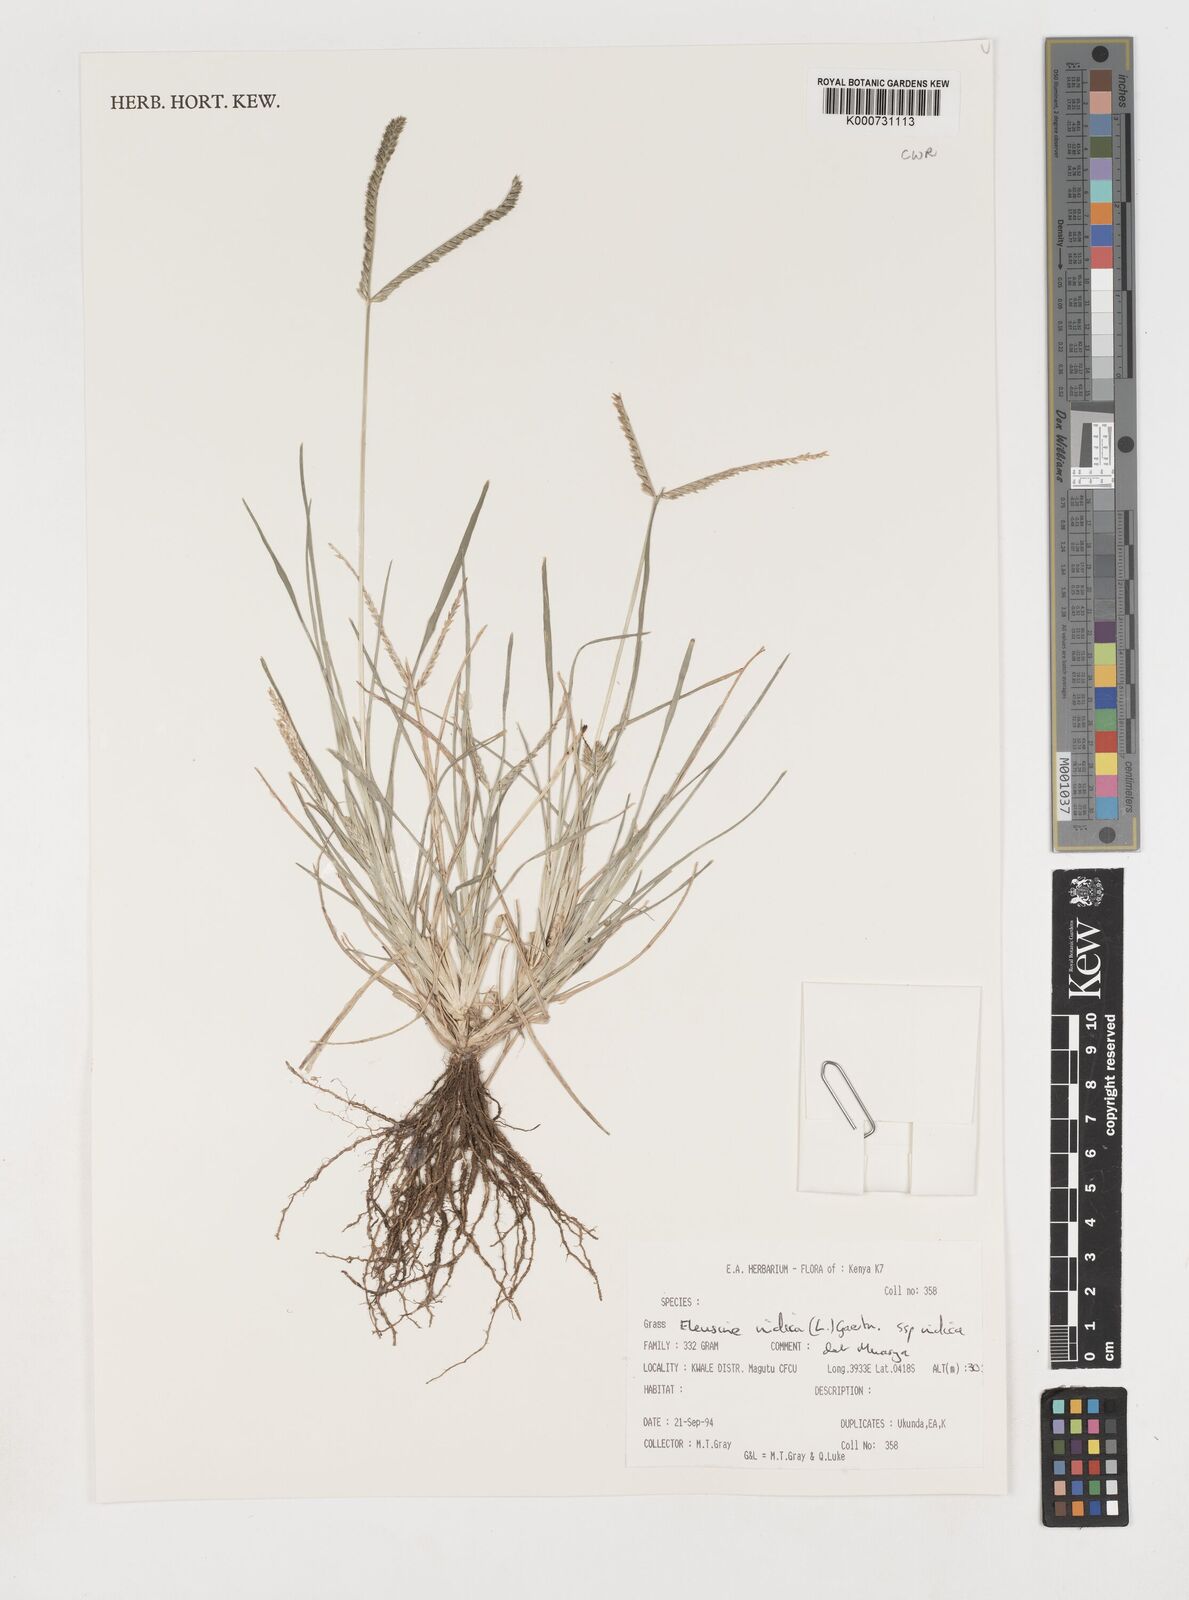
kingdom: Plantae
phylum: Tracheophyta
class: Liliopsida
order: Poales
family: Poaceae
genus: Eleusine
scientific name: Eleusine africana
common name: Wild african finger millet
